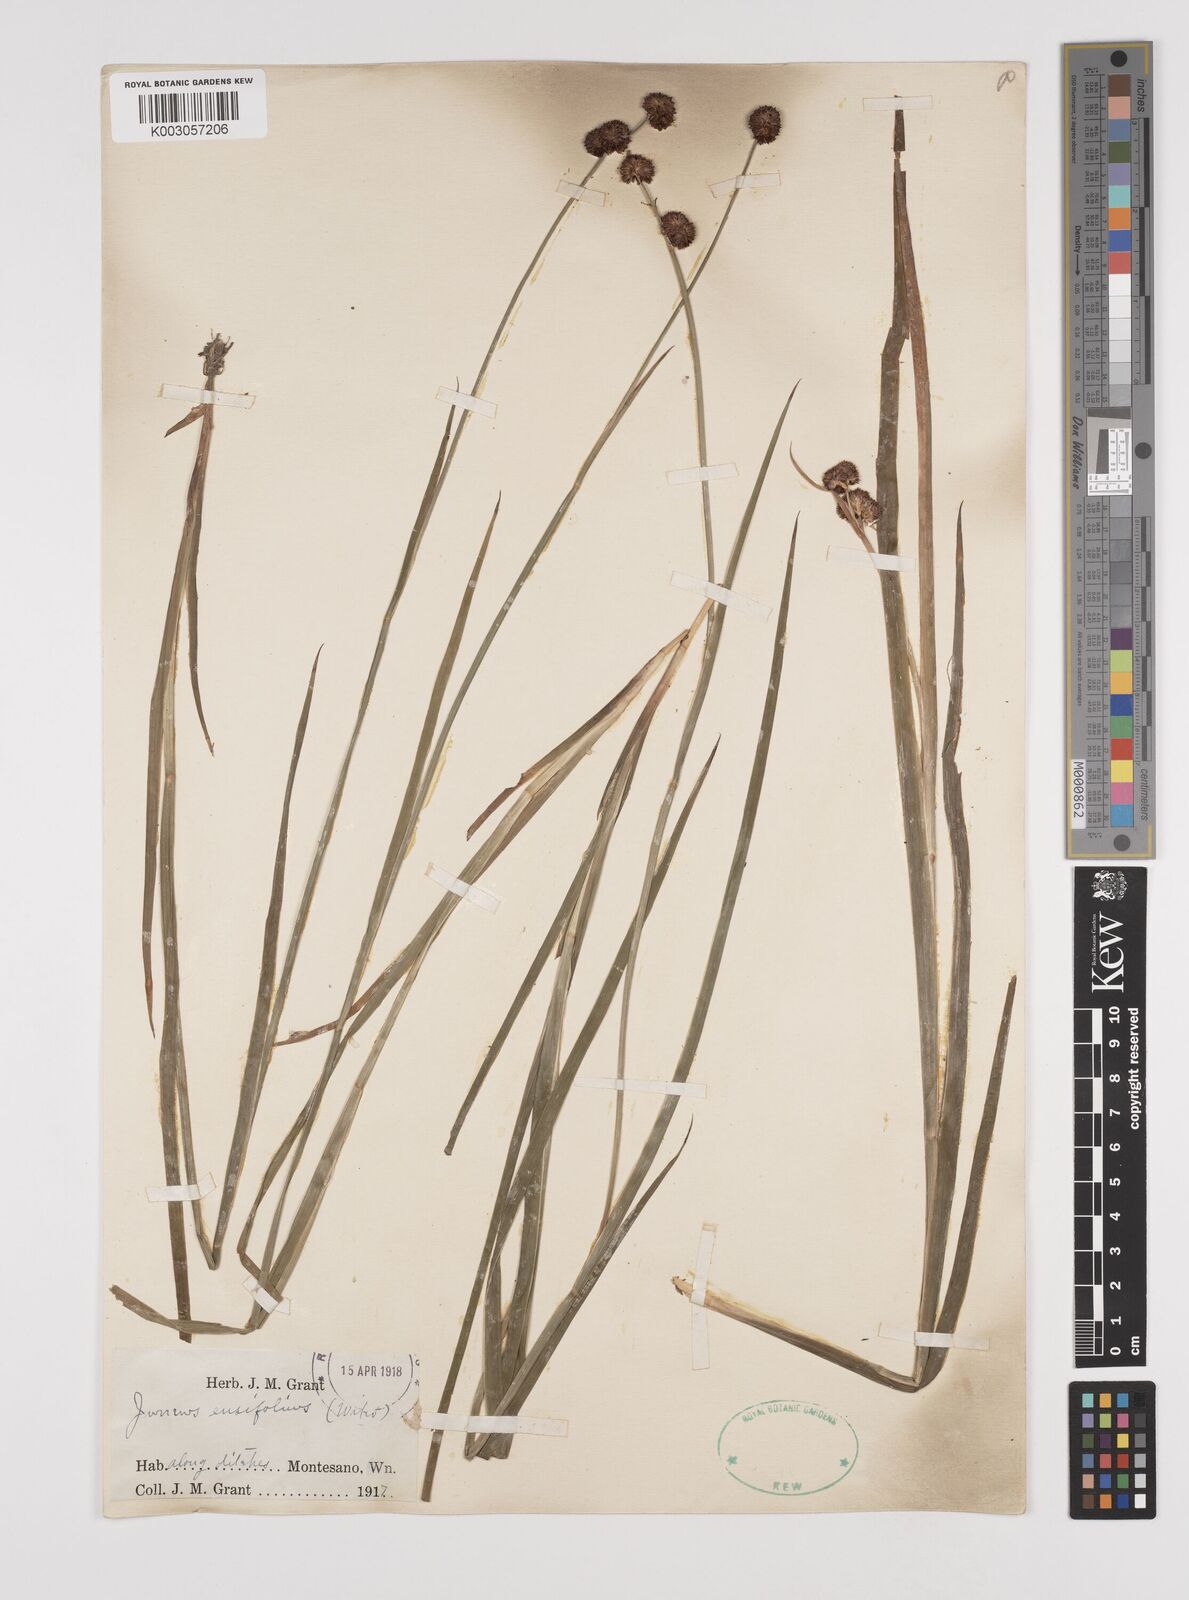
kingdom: Plantae
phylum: Tracheophyta
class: Liliopsida
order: Poales
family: Juncaceae
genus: Juncus
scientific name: Juncus ensifolius
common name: Sword-leaved rush
